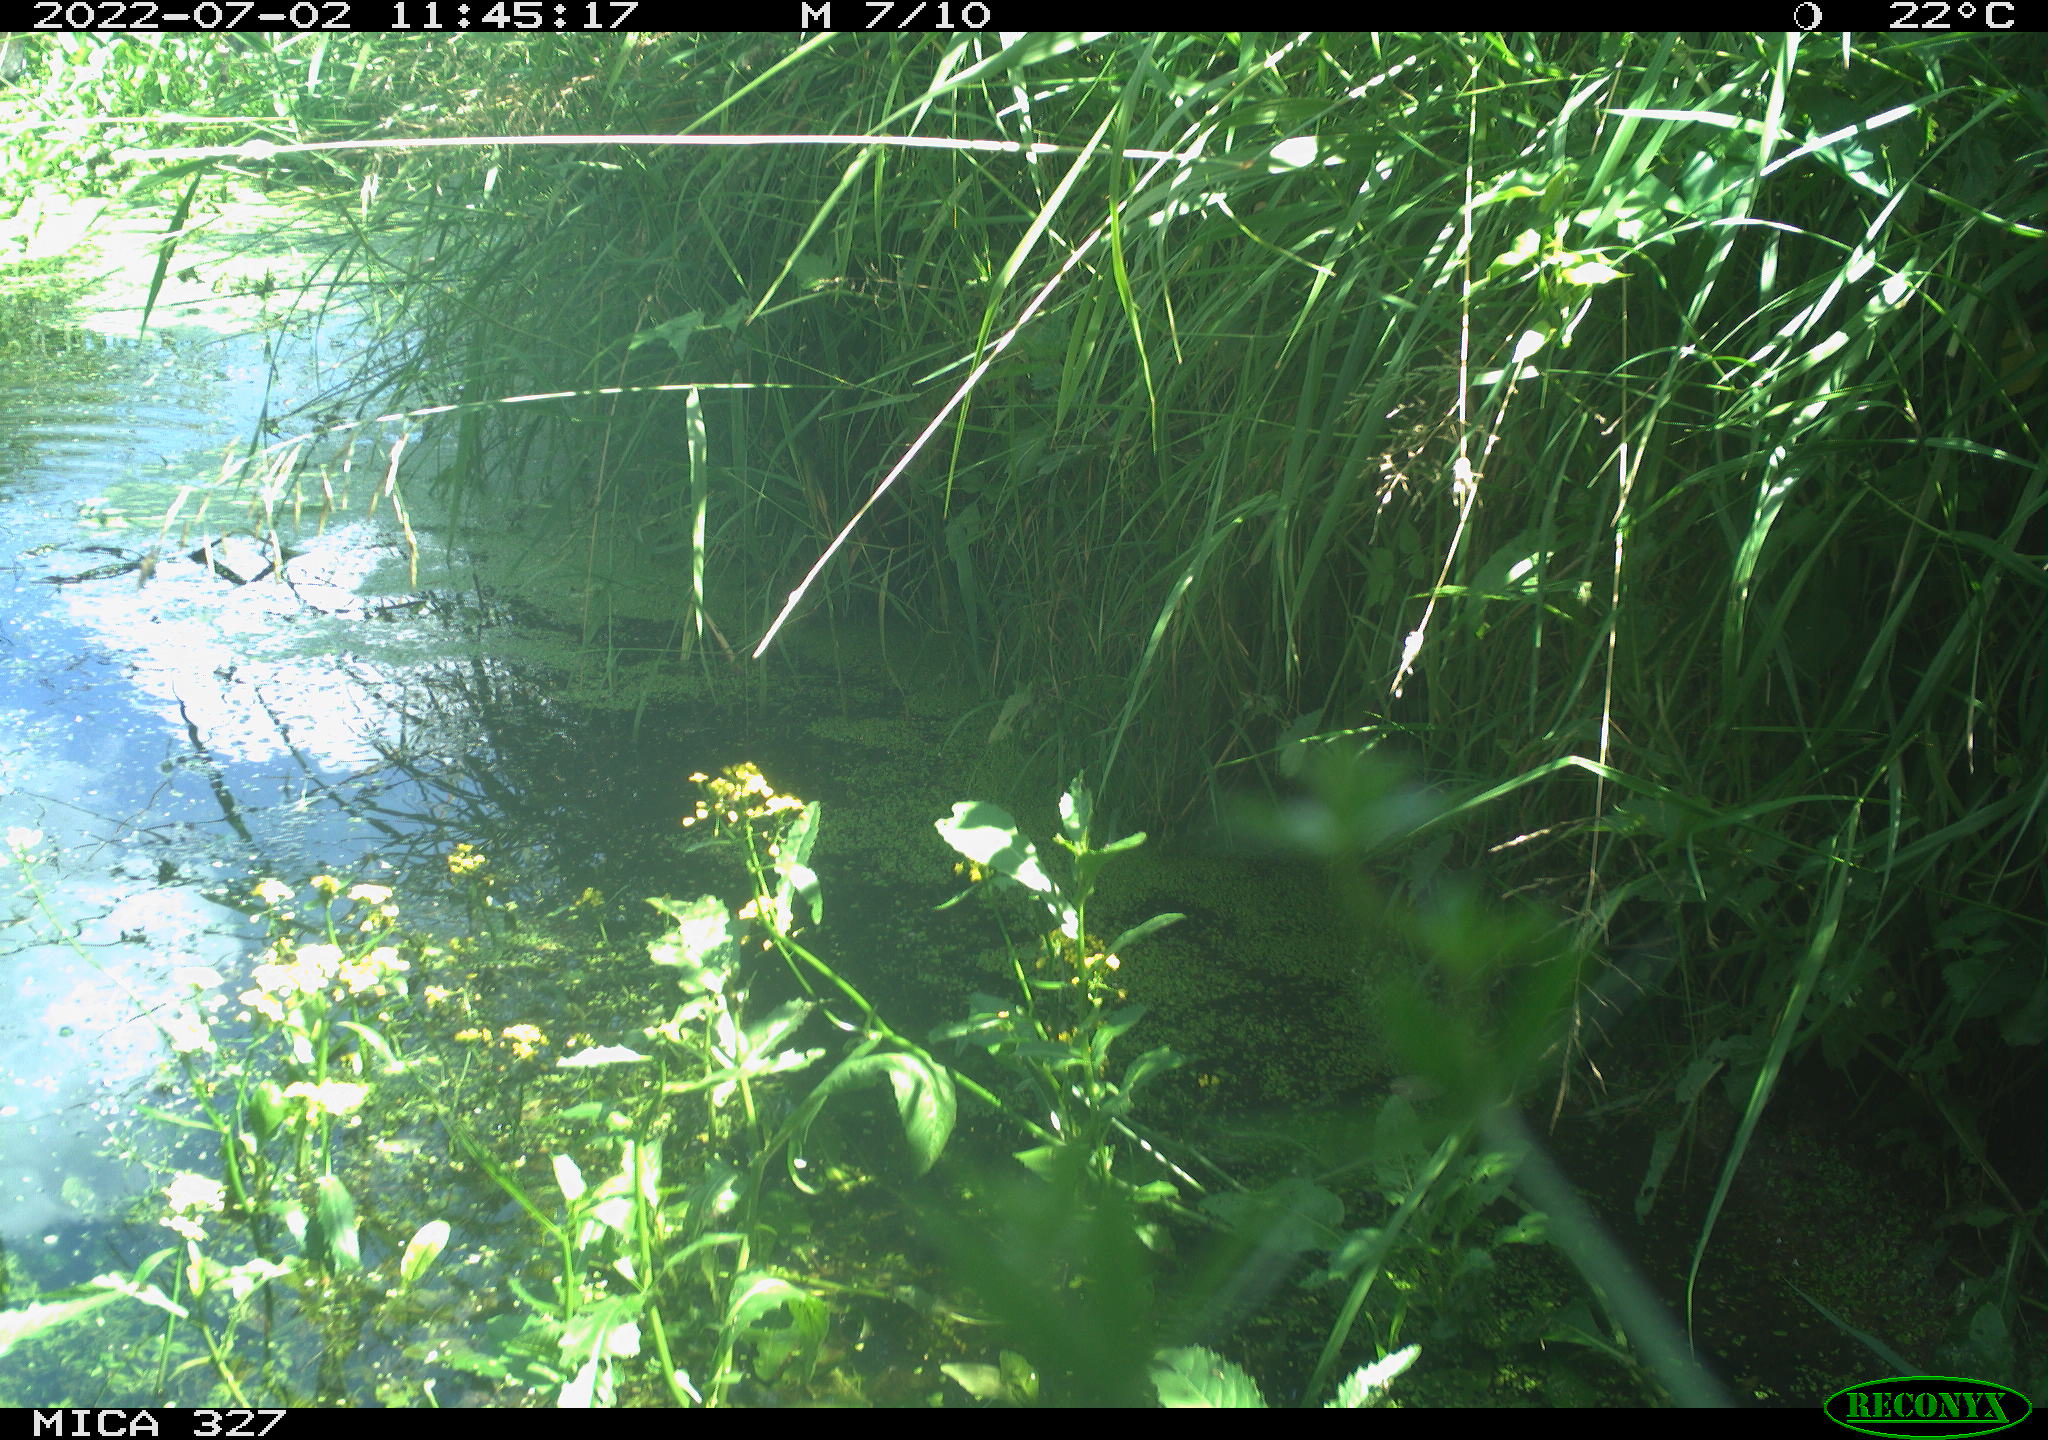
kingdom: Animalia
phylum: Chordata
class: Aves
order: Gruiformes
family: Rallidae
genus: Gallinula
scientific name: Gallinula chloropus
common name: Common moorhen
